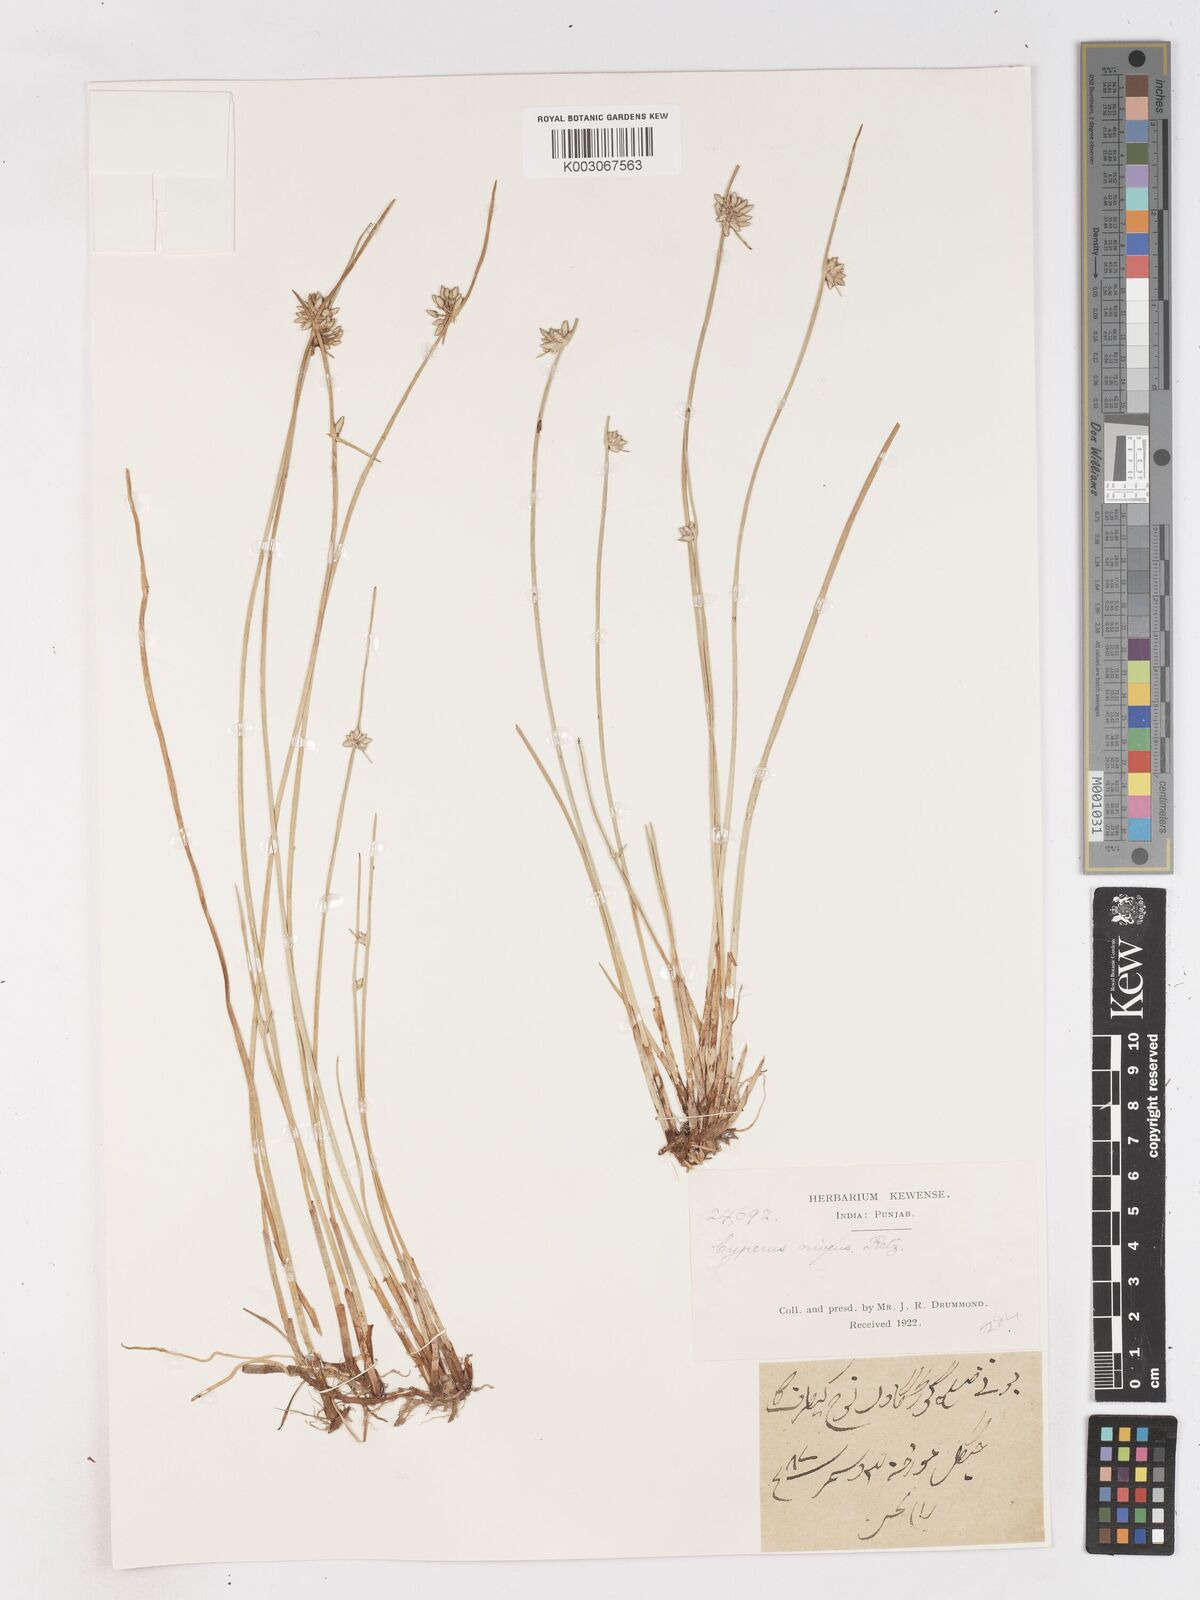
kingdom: Plantae
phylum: Tracheophyta
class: Liliopsida
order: Poales
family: Cyperaceae
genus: Cyperus
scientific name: Cyperus laevigatus
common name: Smooth flat sedge
